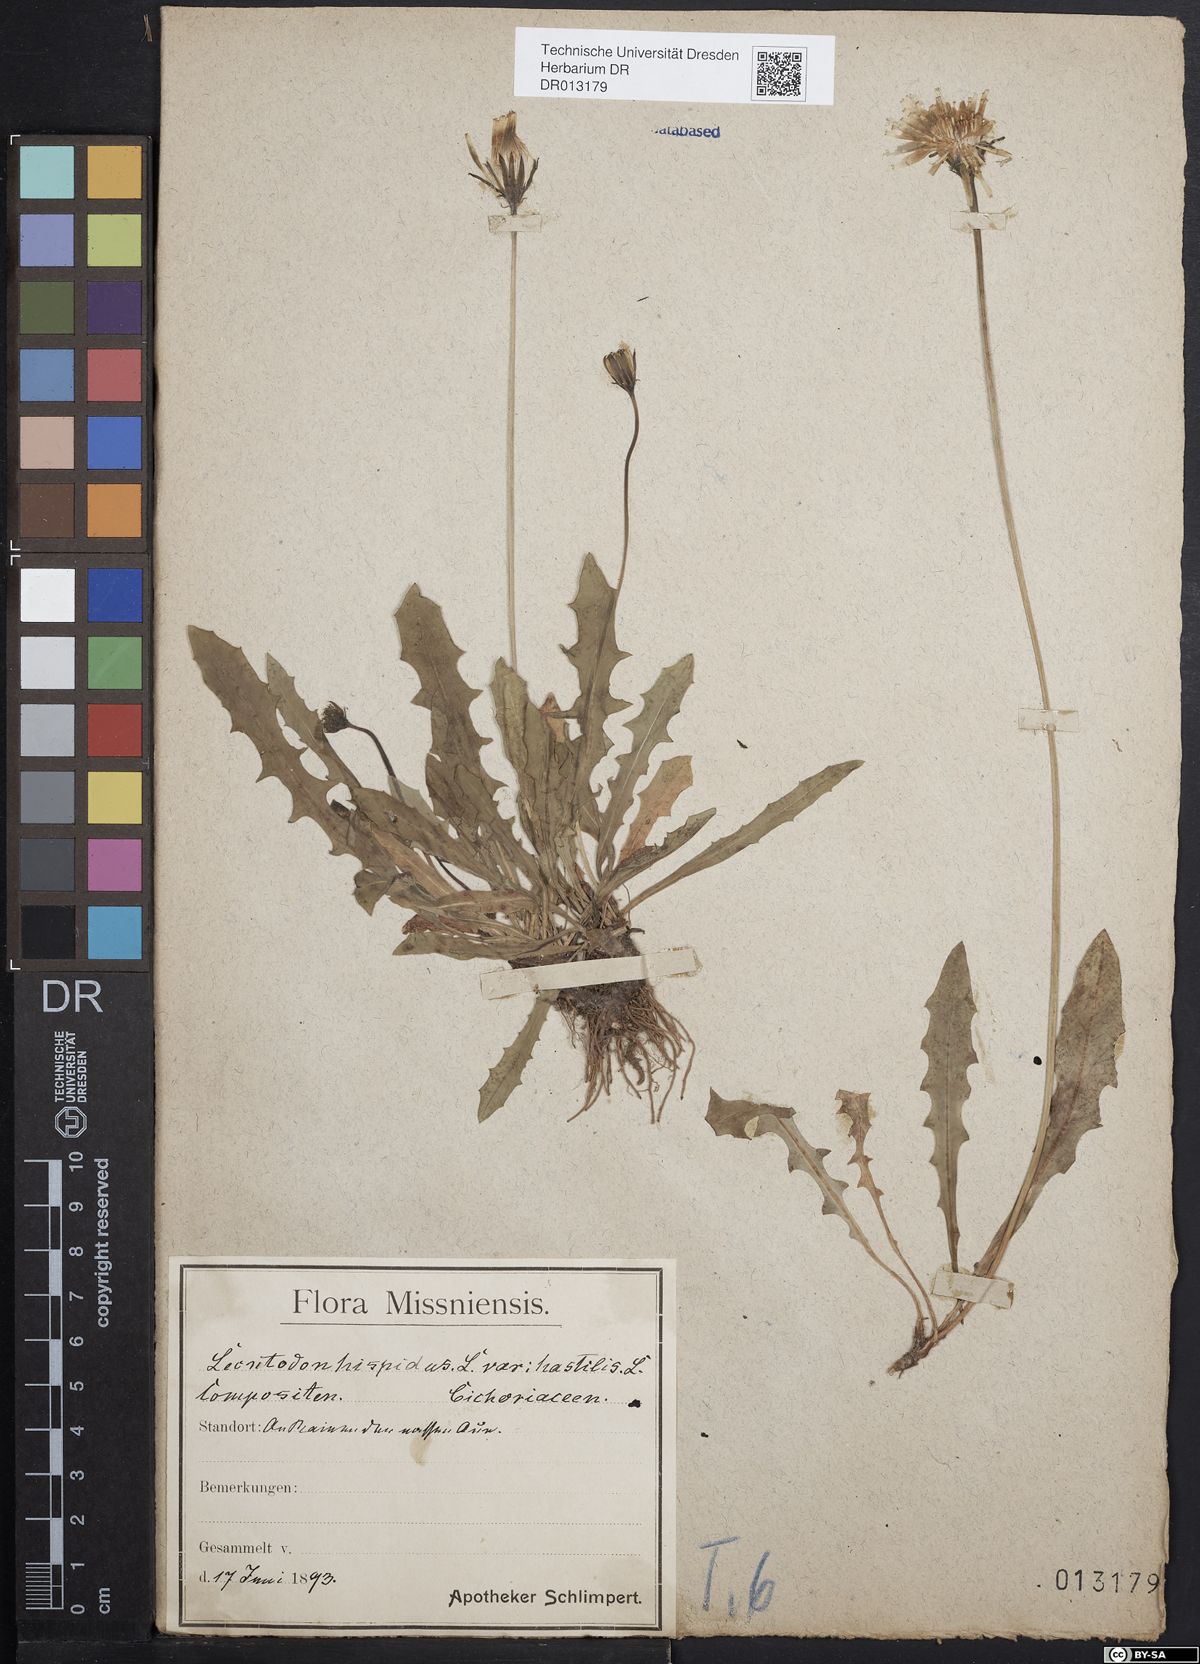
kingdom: Plantae
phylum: Tracheophyta
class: Magnoliopsida
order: Asterales
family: Asteraceae
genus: Leontodon
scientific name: Leontodon hispidus
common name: Rough hawkbit
